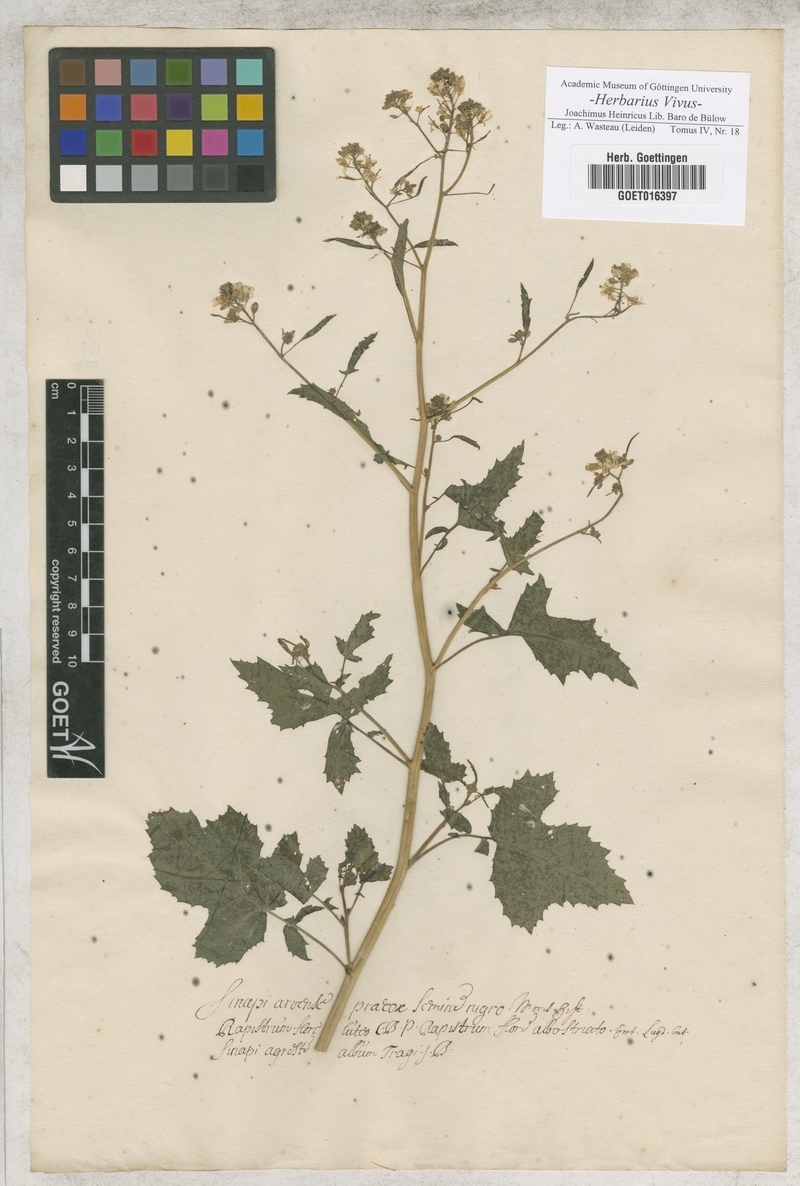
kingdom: Plantae
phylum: Tracheophyta
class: Magnoliopsida
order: Brassicales
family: Brassicaceae
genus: Sinapis
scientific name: Sinapis arvensis
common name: Charlock
